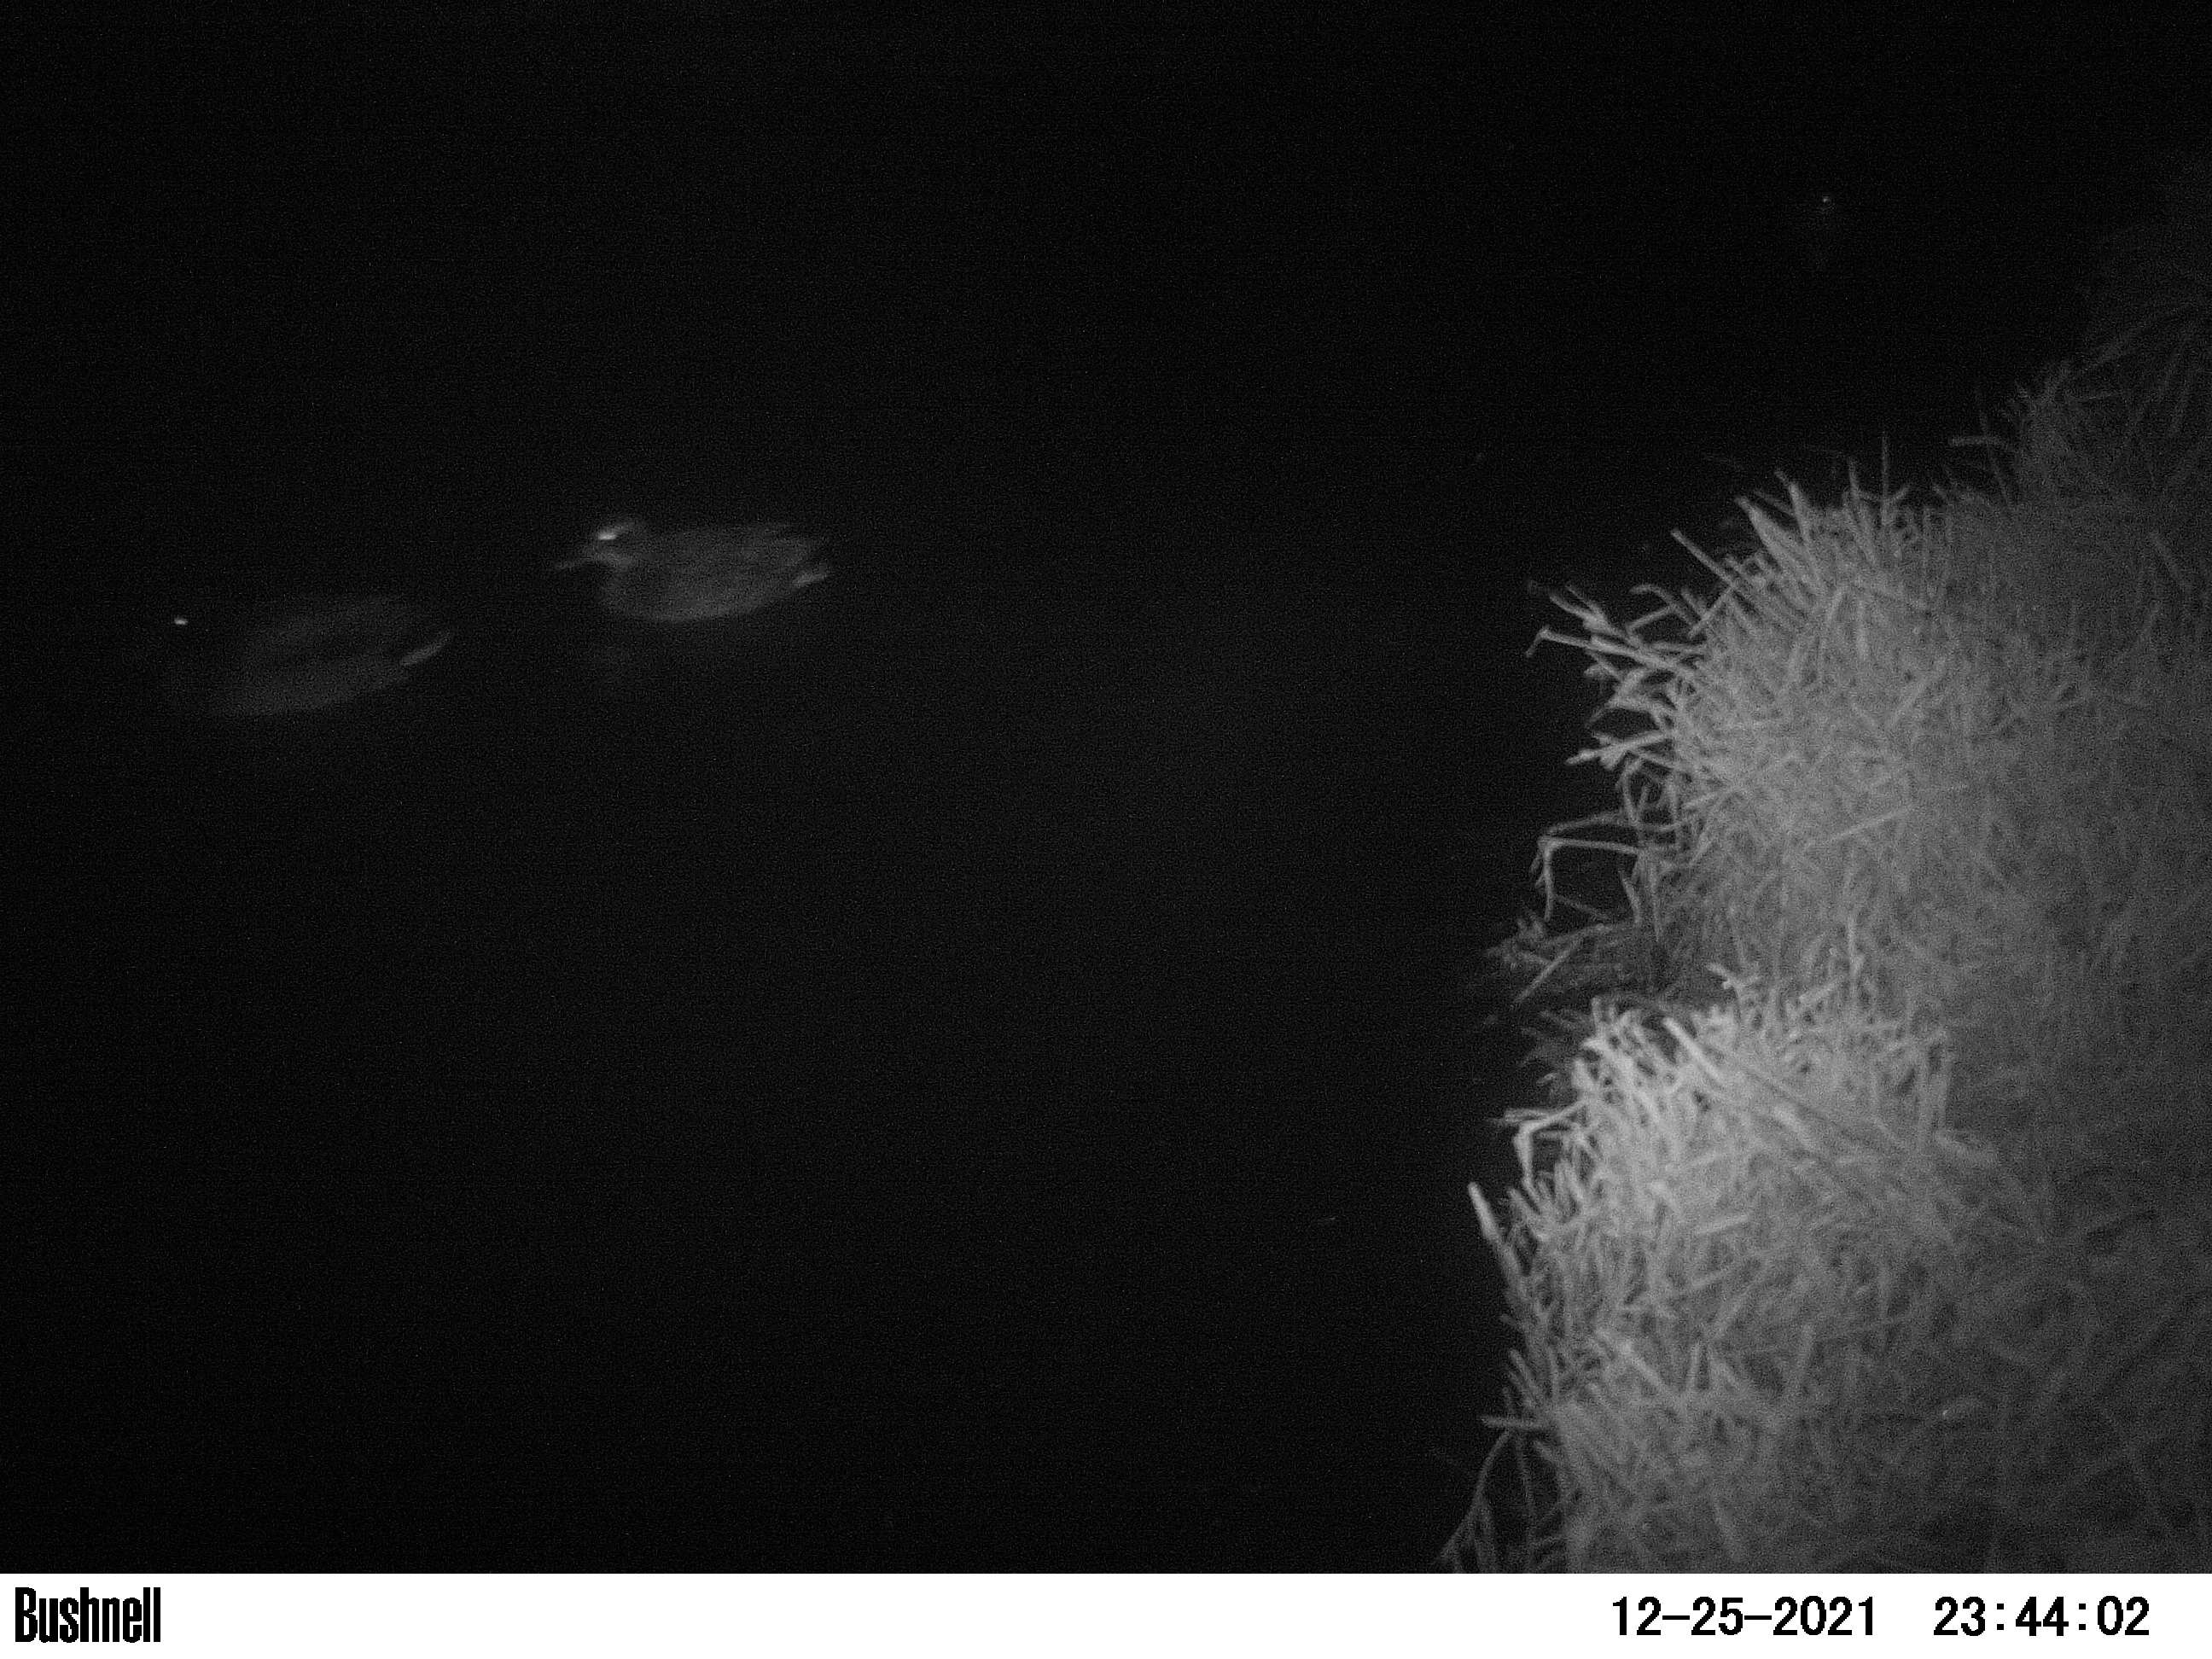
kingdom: Animalia
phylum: Chordata
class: Aves
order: Anseriformes
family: Anatidae
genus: Anas
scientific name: Anas
